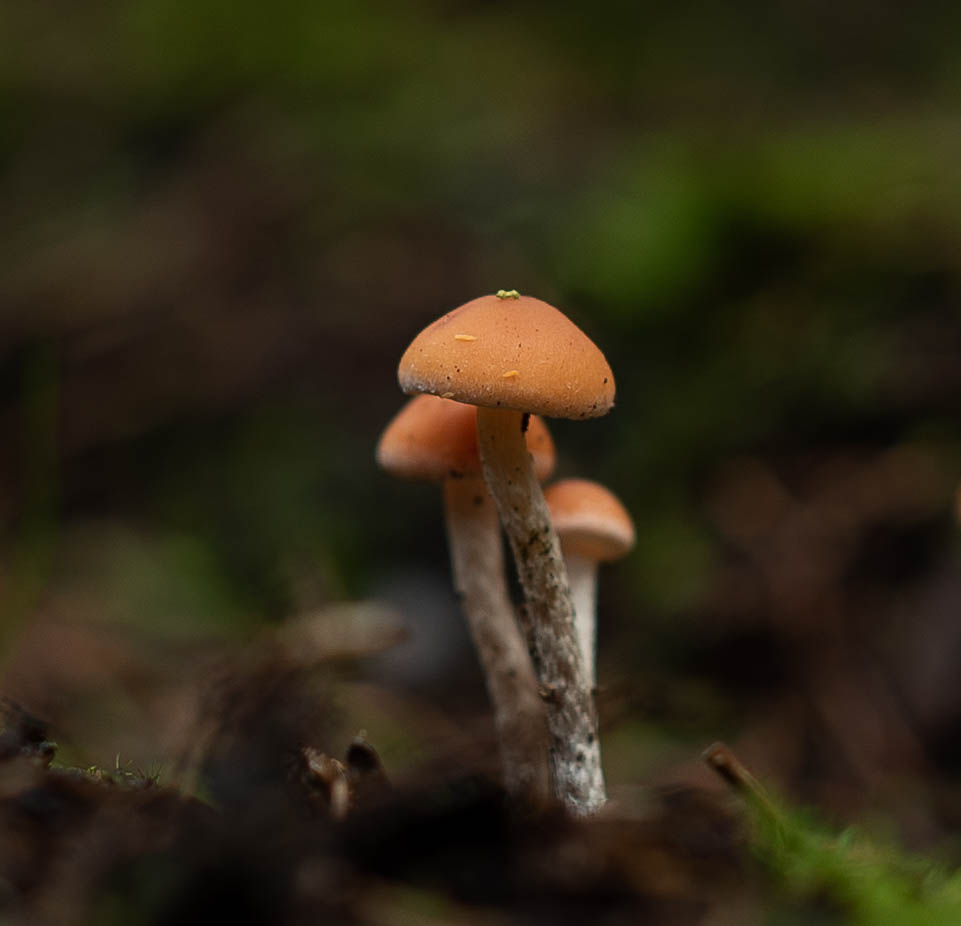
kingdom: Fungi
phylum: Basidiomycota
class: Agaricomycetes
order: Agaricales
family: Strophariaceae
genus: Hypholoma
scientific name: Hypholoma marginatum
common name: enlig svovlhat
